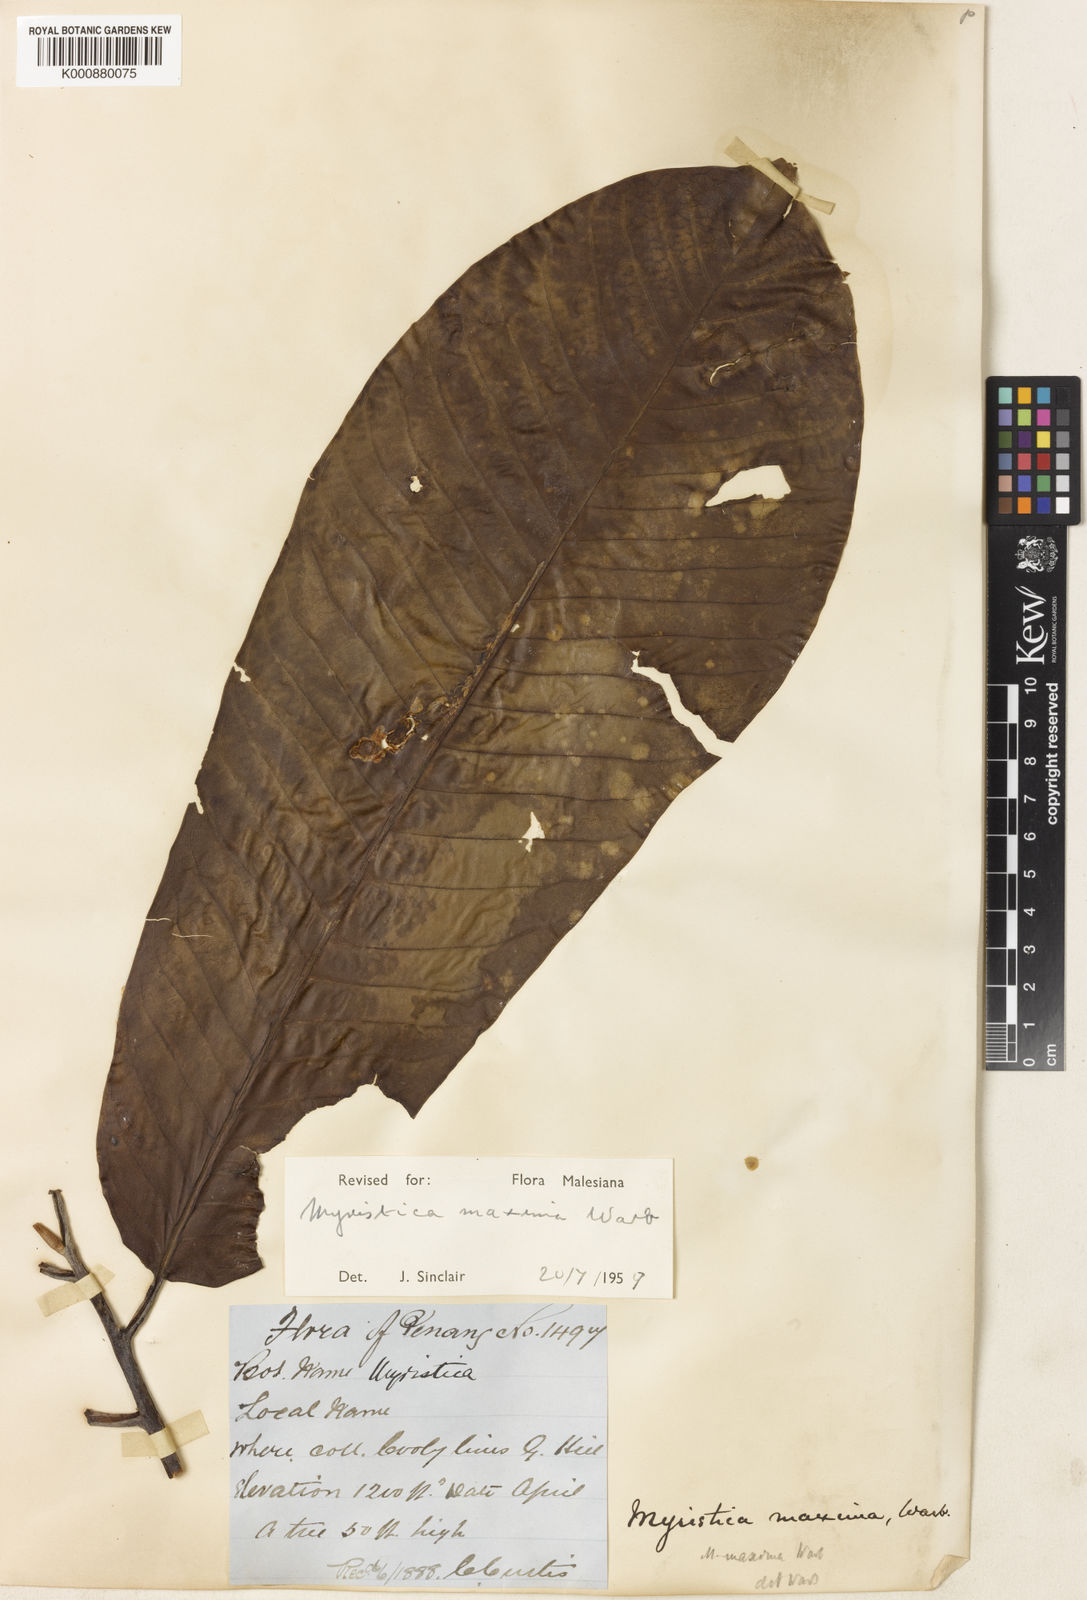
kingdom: Plantae
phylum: Tracheophyta
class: Magnoliopsida
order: Magnoliales
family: Myristicaceae
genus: Myristica
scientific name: Myristica maxima
